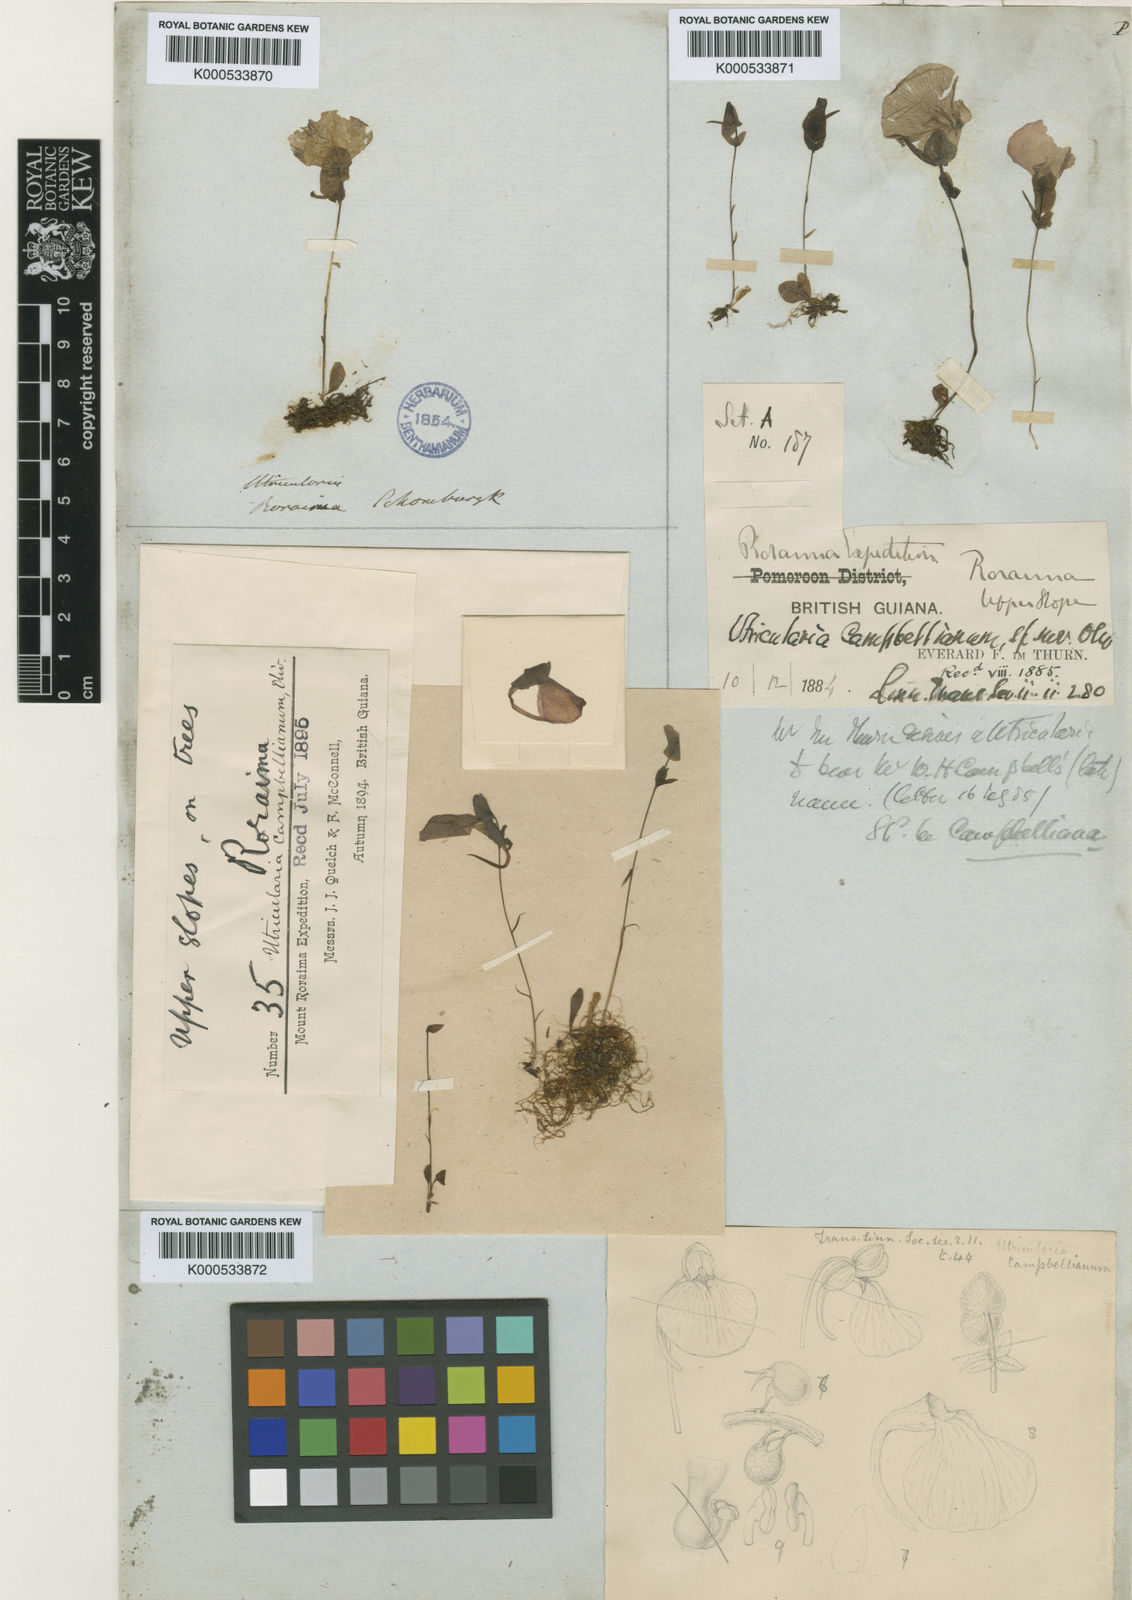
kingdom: Plantae
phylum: Tracheophyta
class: Magnoliopsida
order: Lamiales
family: Lentibulariaceae
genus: Utricularia
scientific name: Utricularia campbelliana
